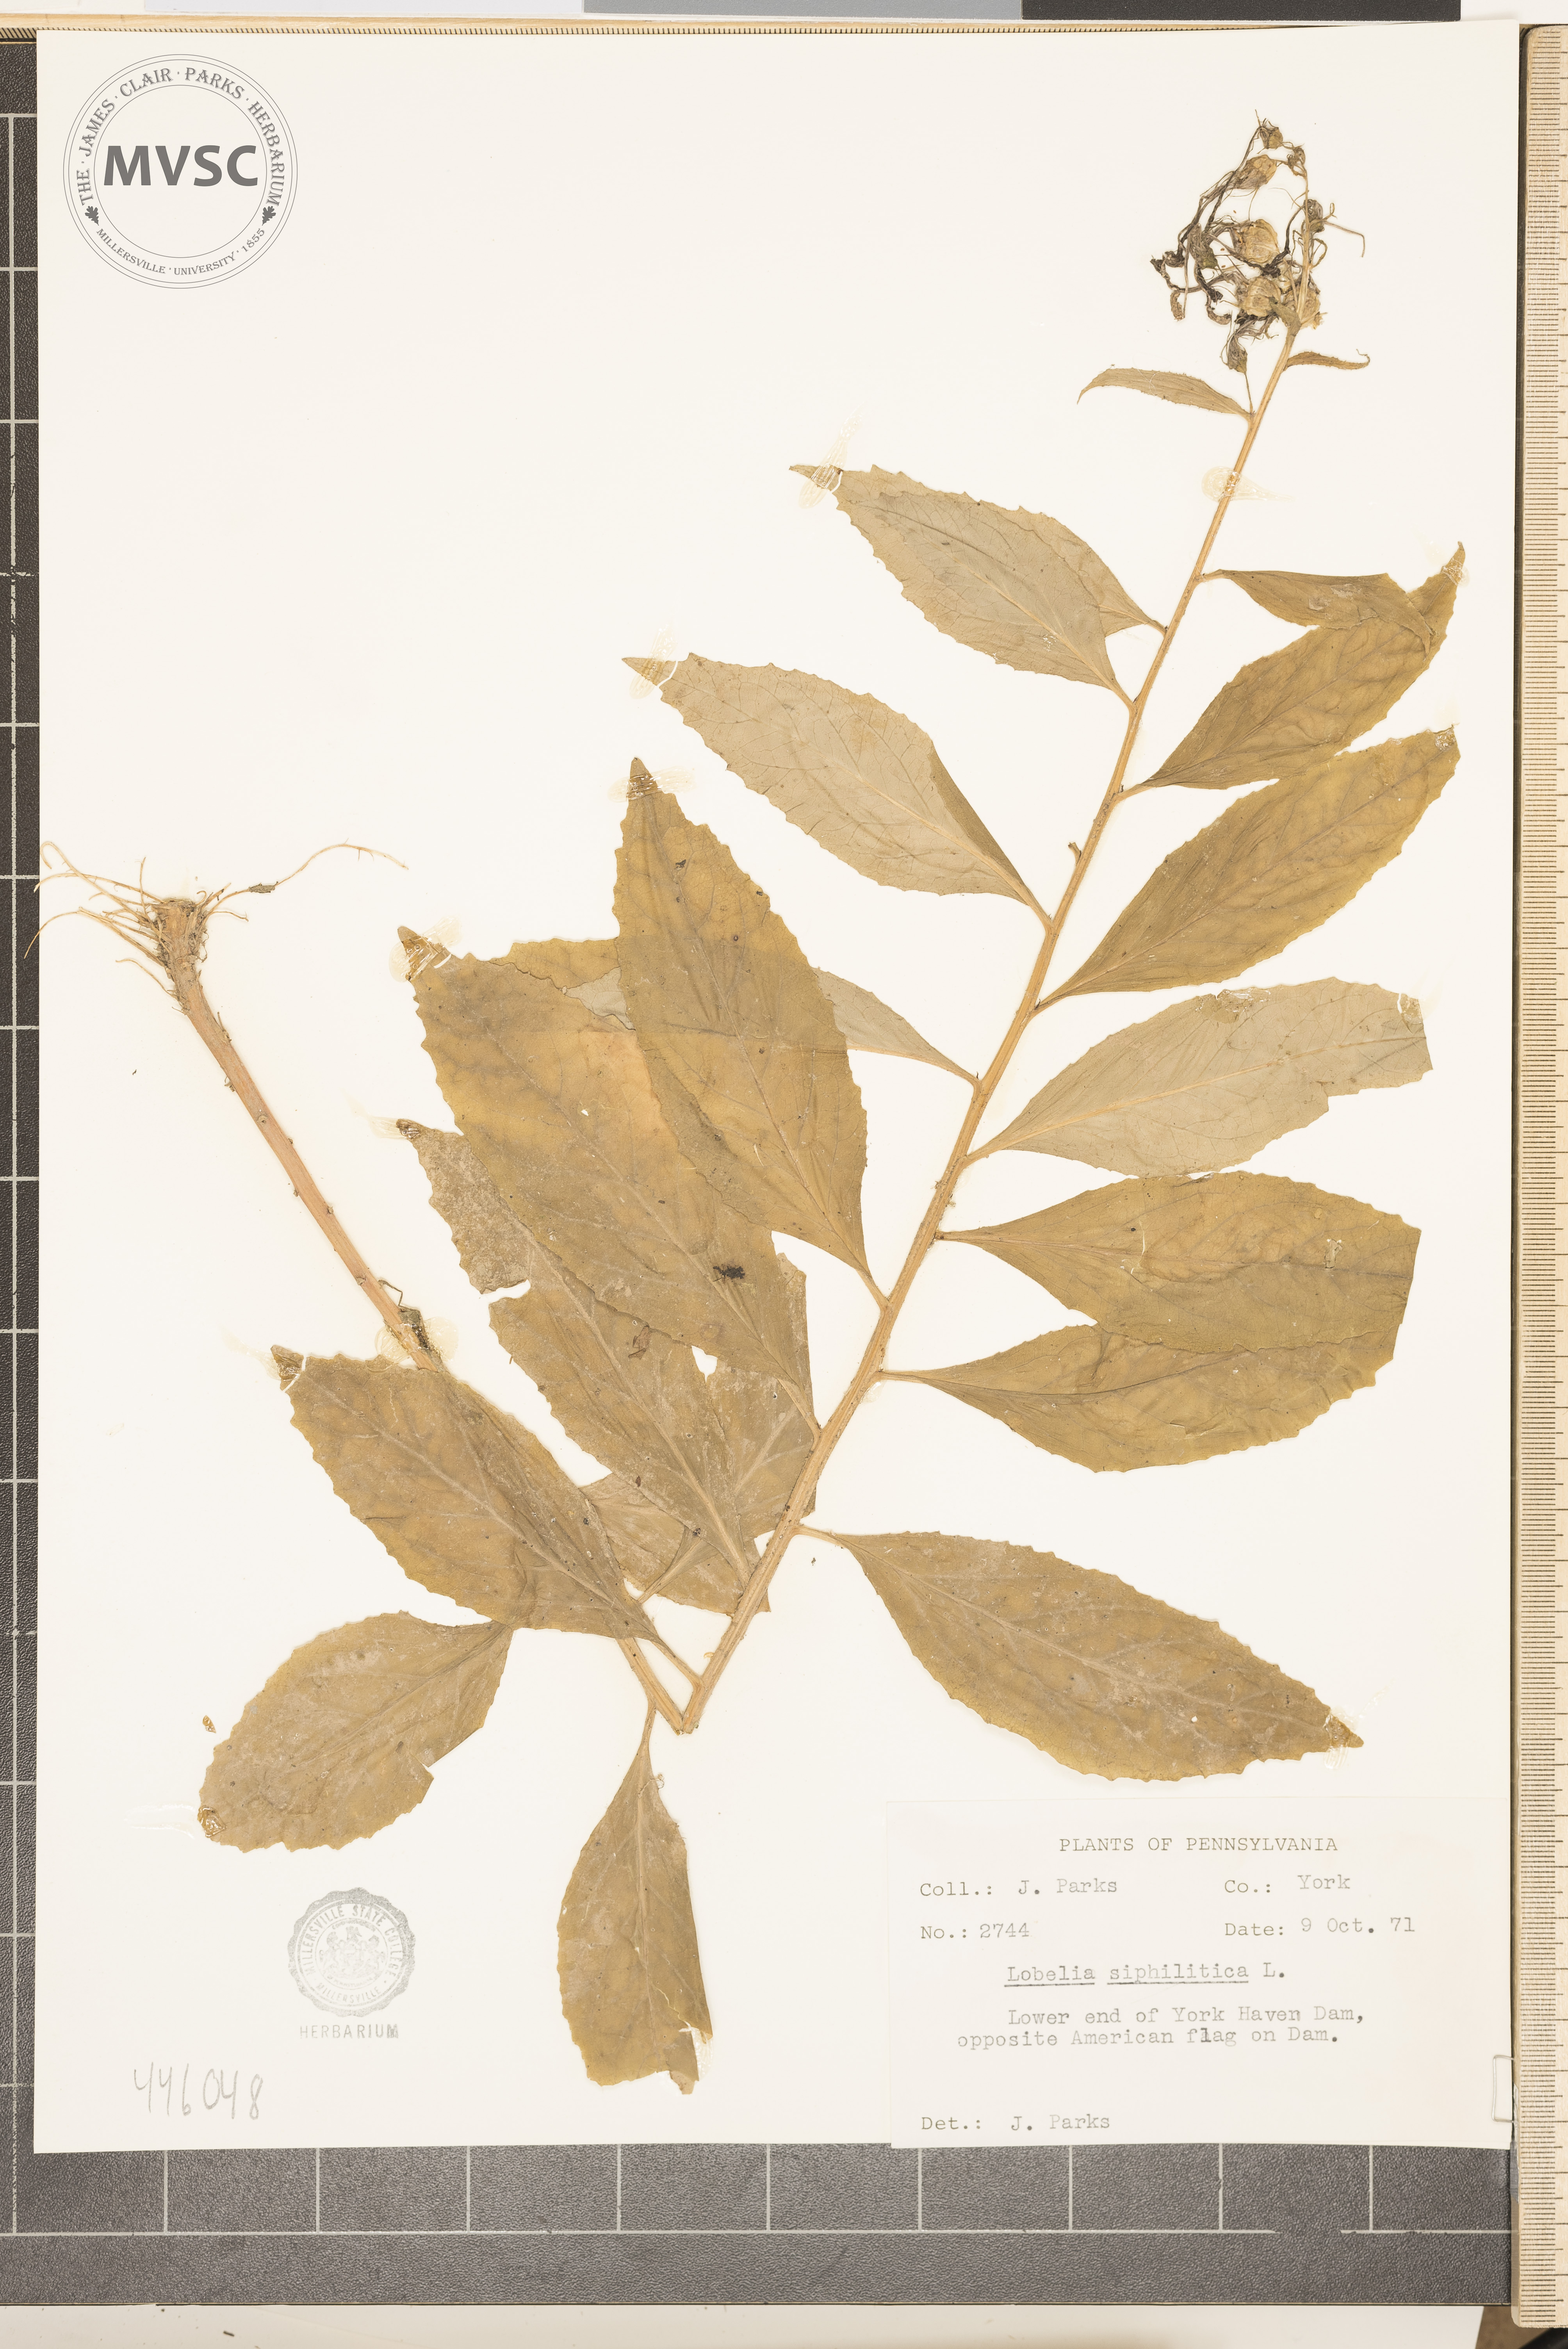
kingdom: Plantae
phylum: Tracheophyta
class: Magnoliopsida
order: Asterales
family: Campanulaceae
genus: Lobelia
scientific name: Lobelia siphilitica
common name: Great lobelia
